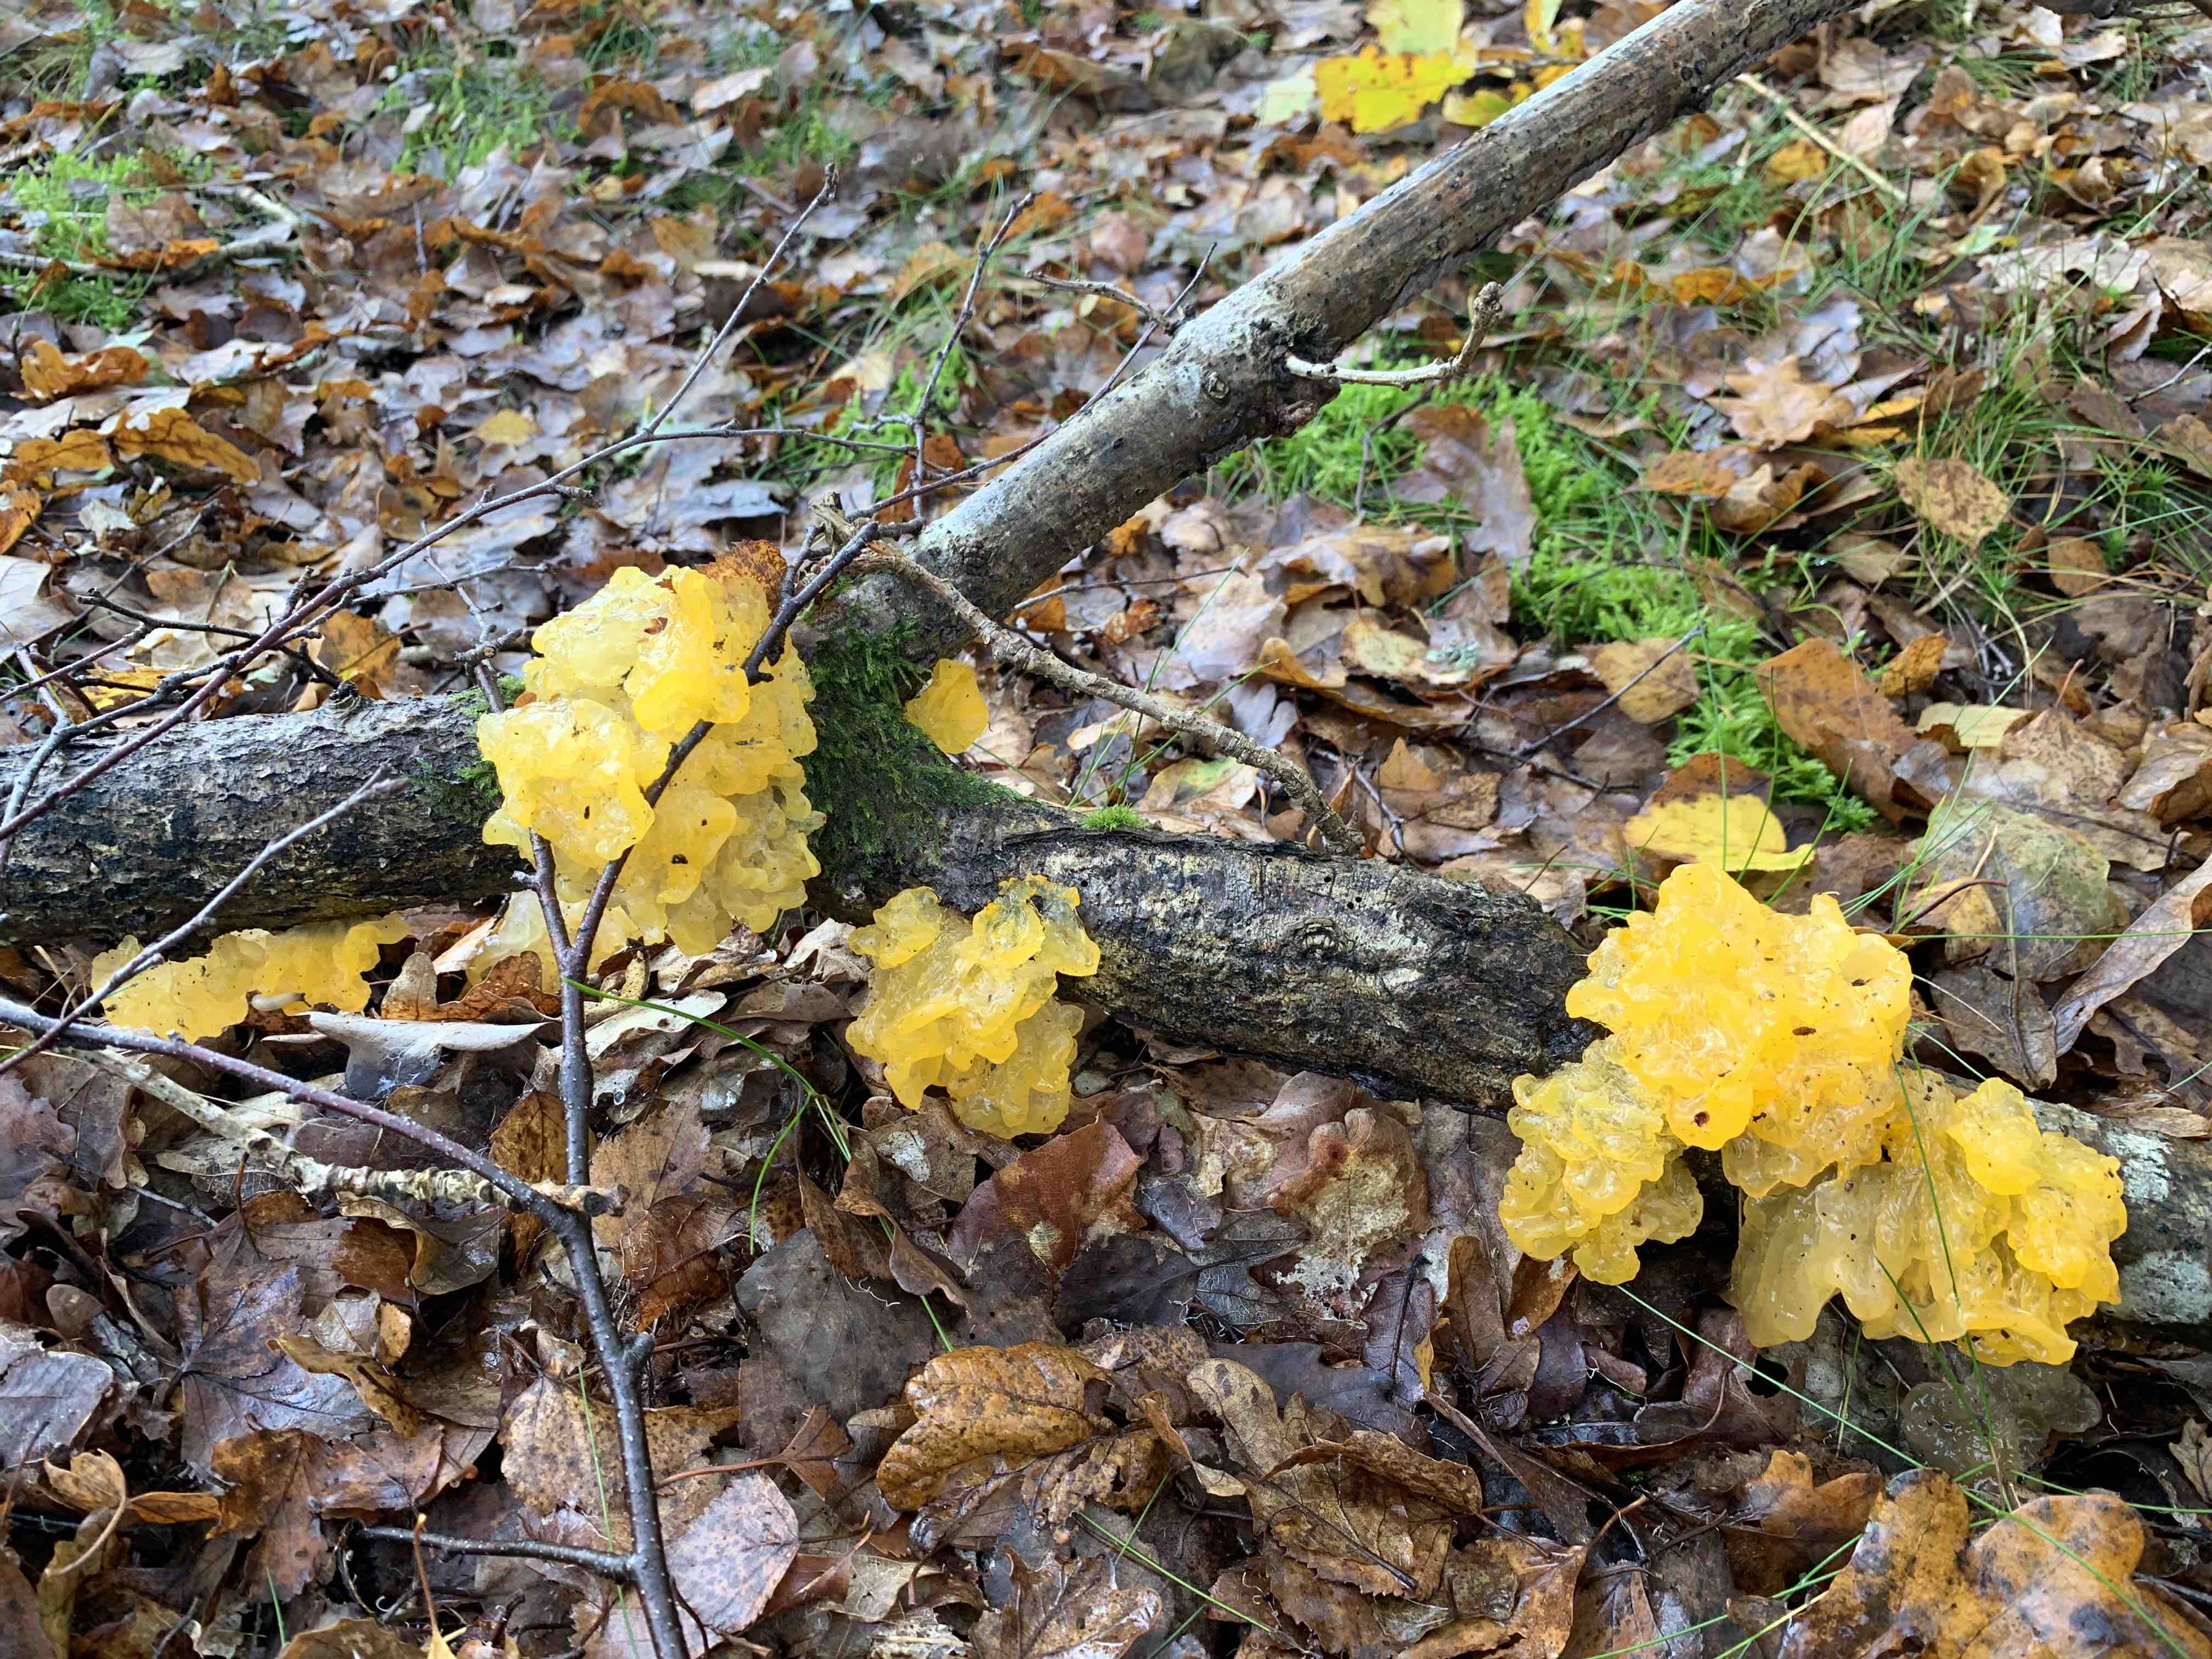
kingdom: Fungi
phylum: Basidiomycota
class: Tremellomycetes
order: Tremellales
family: Tremellaceae
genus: Tremella
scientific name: Tremella mesenterica
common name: gul bævresvamp
